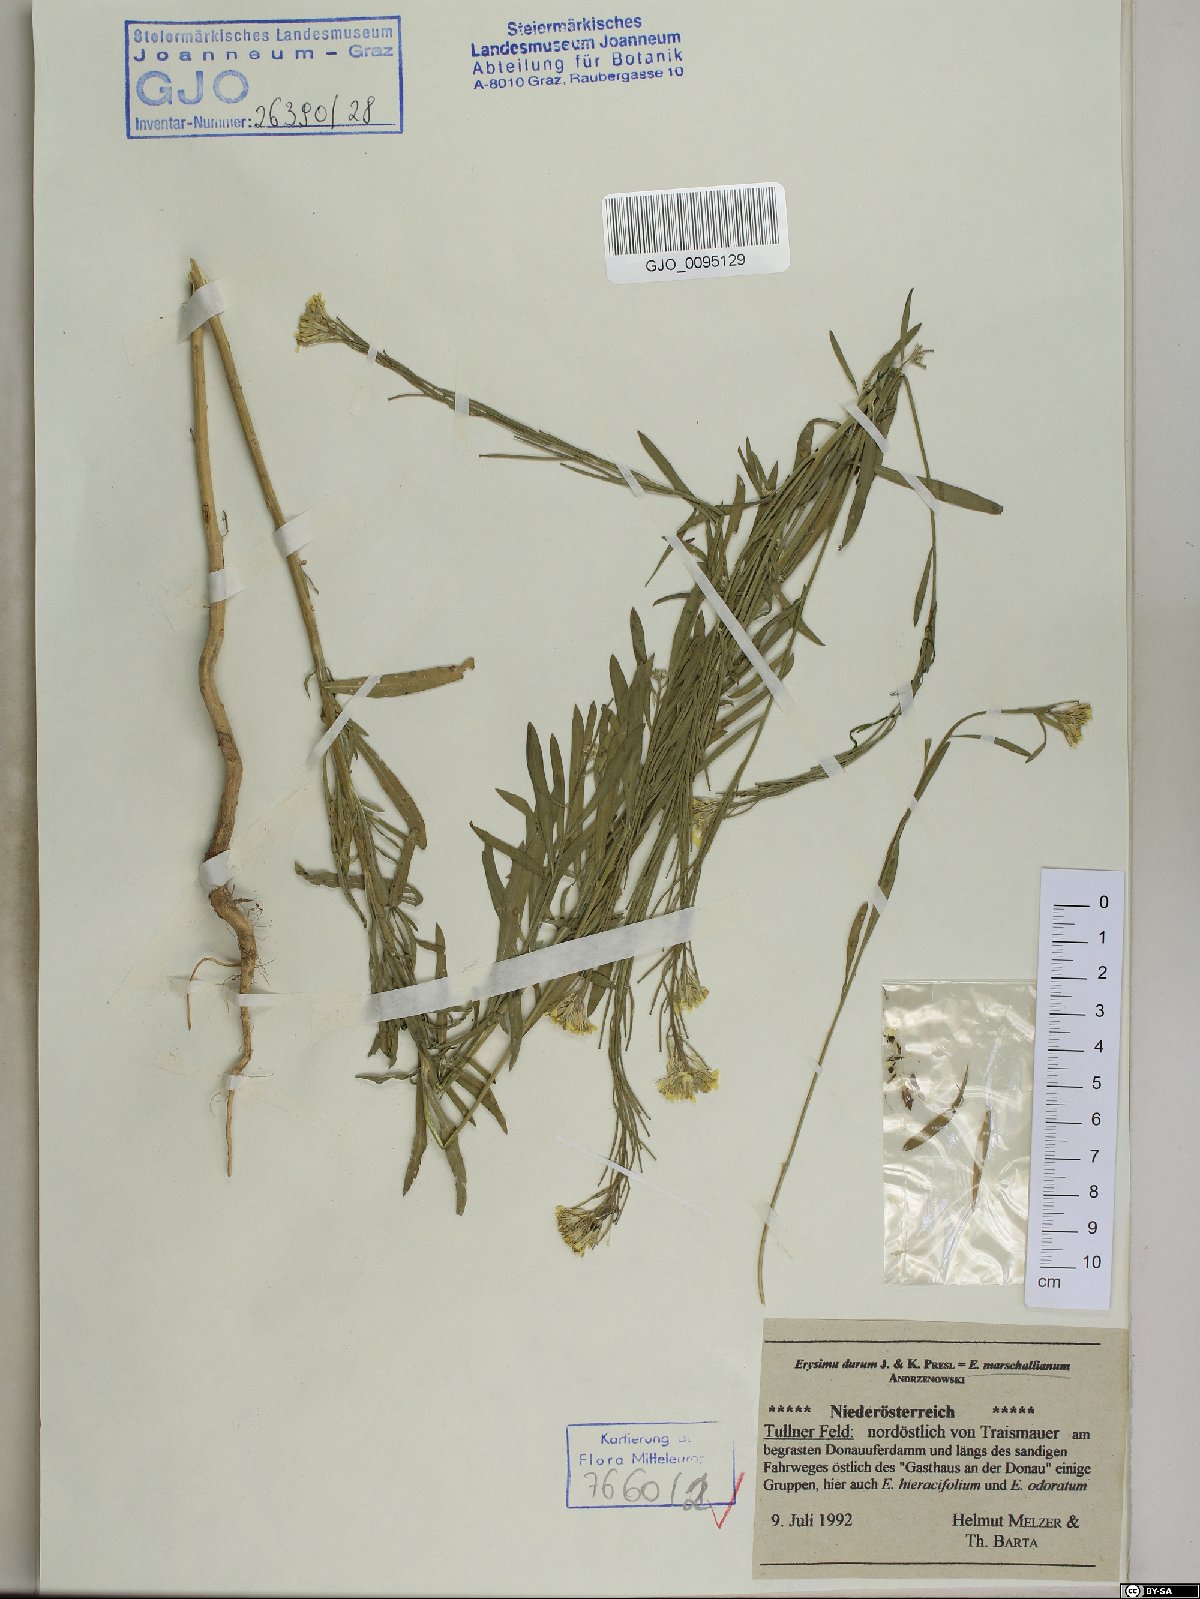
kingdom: Plantae
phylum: Tracheophyta
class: Magnoliopsida
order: Brassicales
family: Brassicaceae
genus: Erysimum
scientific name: Erysimum marschallianum
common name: Hard wallflower
